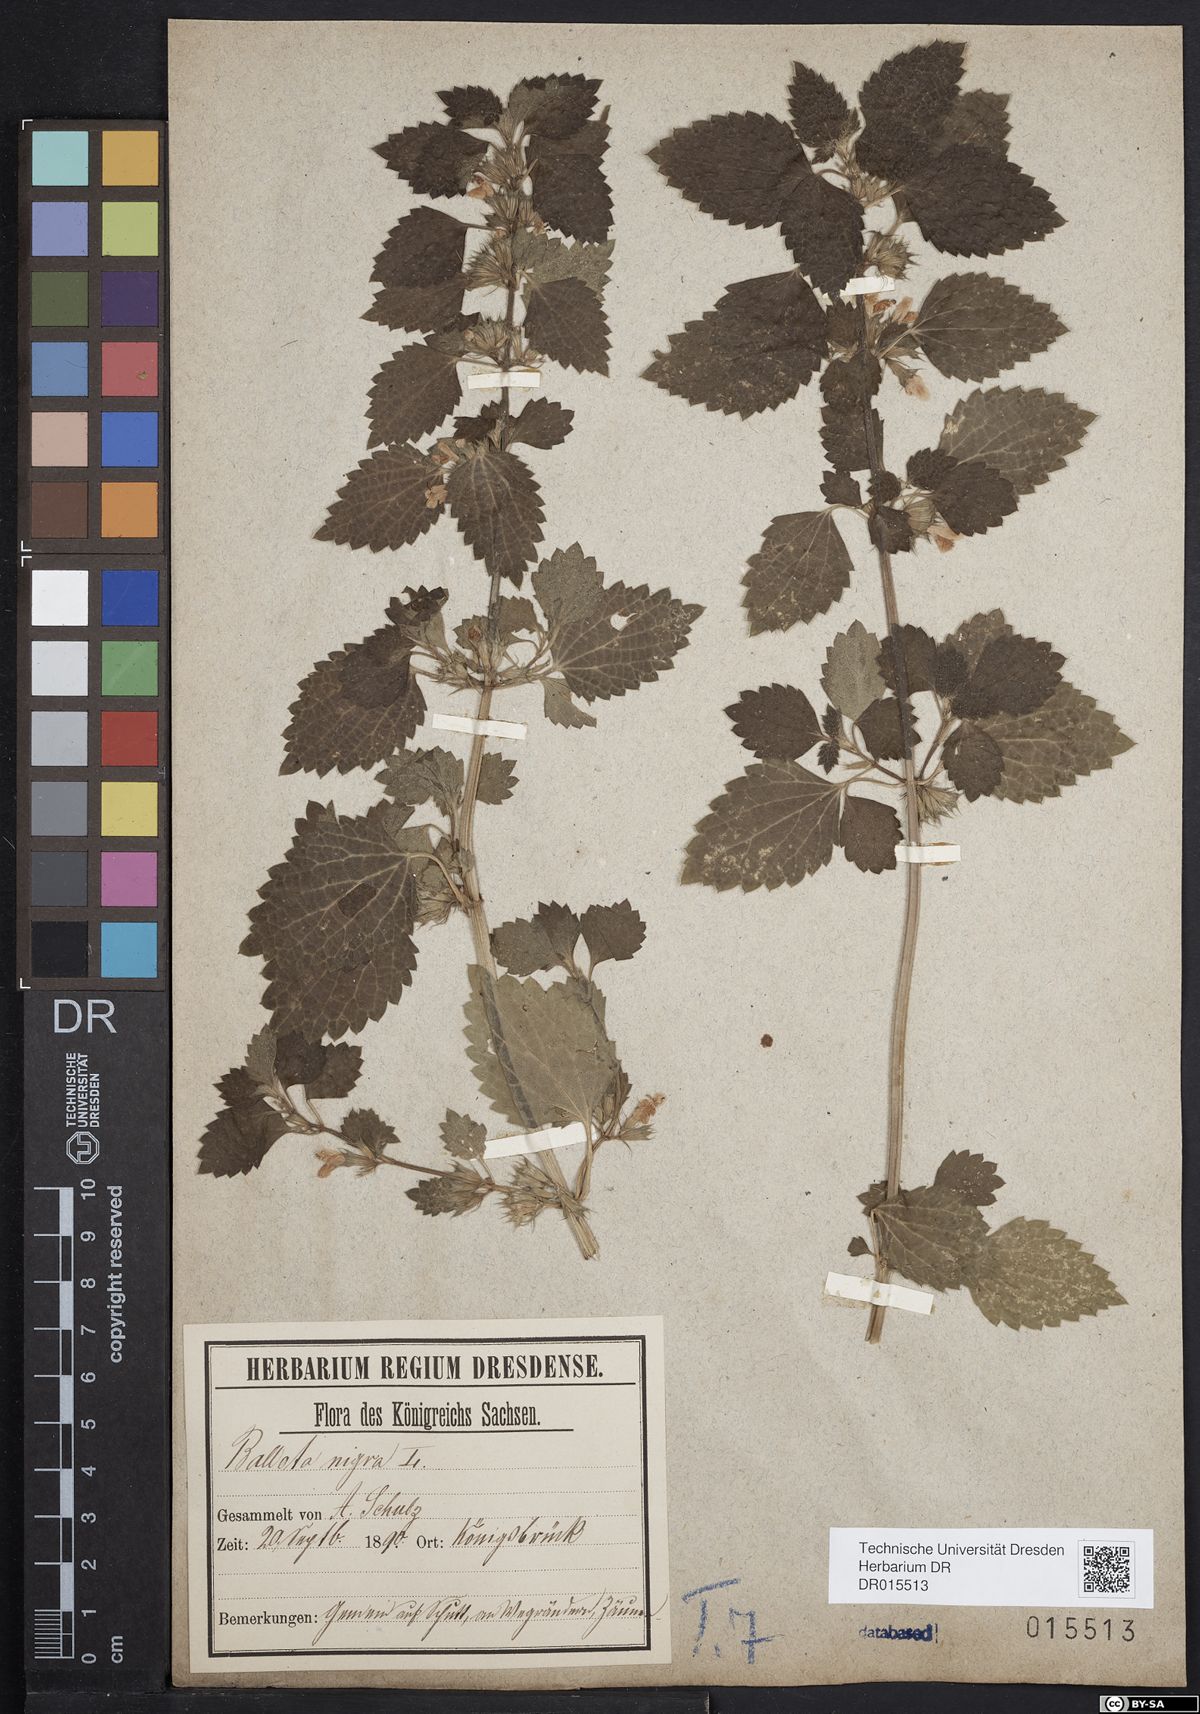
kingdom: Plantae
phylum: Tracheophyta
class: Magnoliopsida
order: Lamiales
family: Lamiaceae
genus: Ballota
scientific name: Ballota nigra
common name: Black horehound
